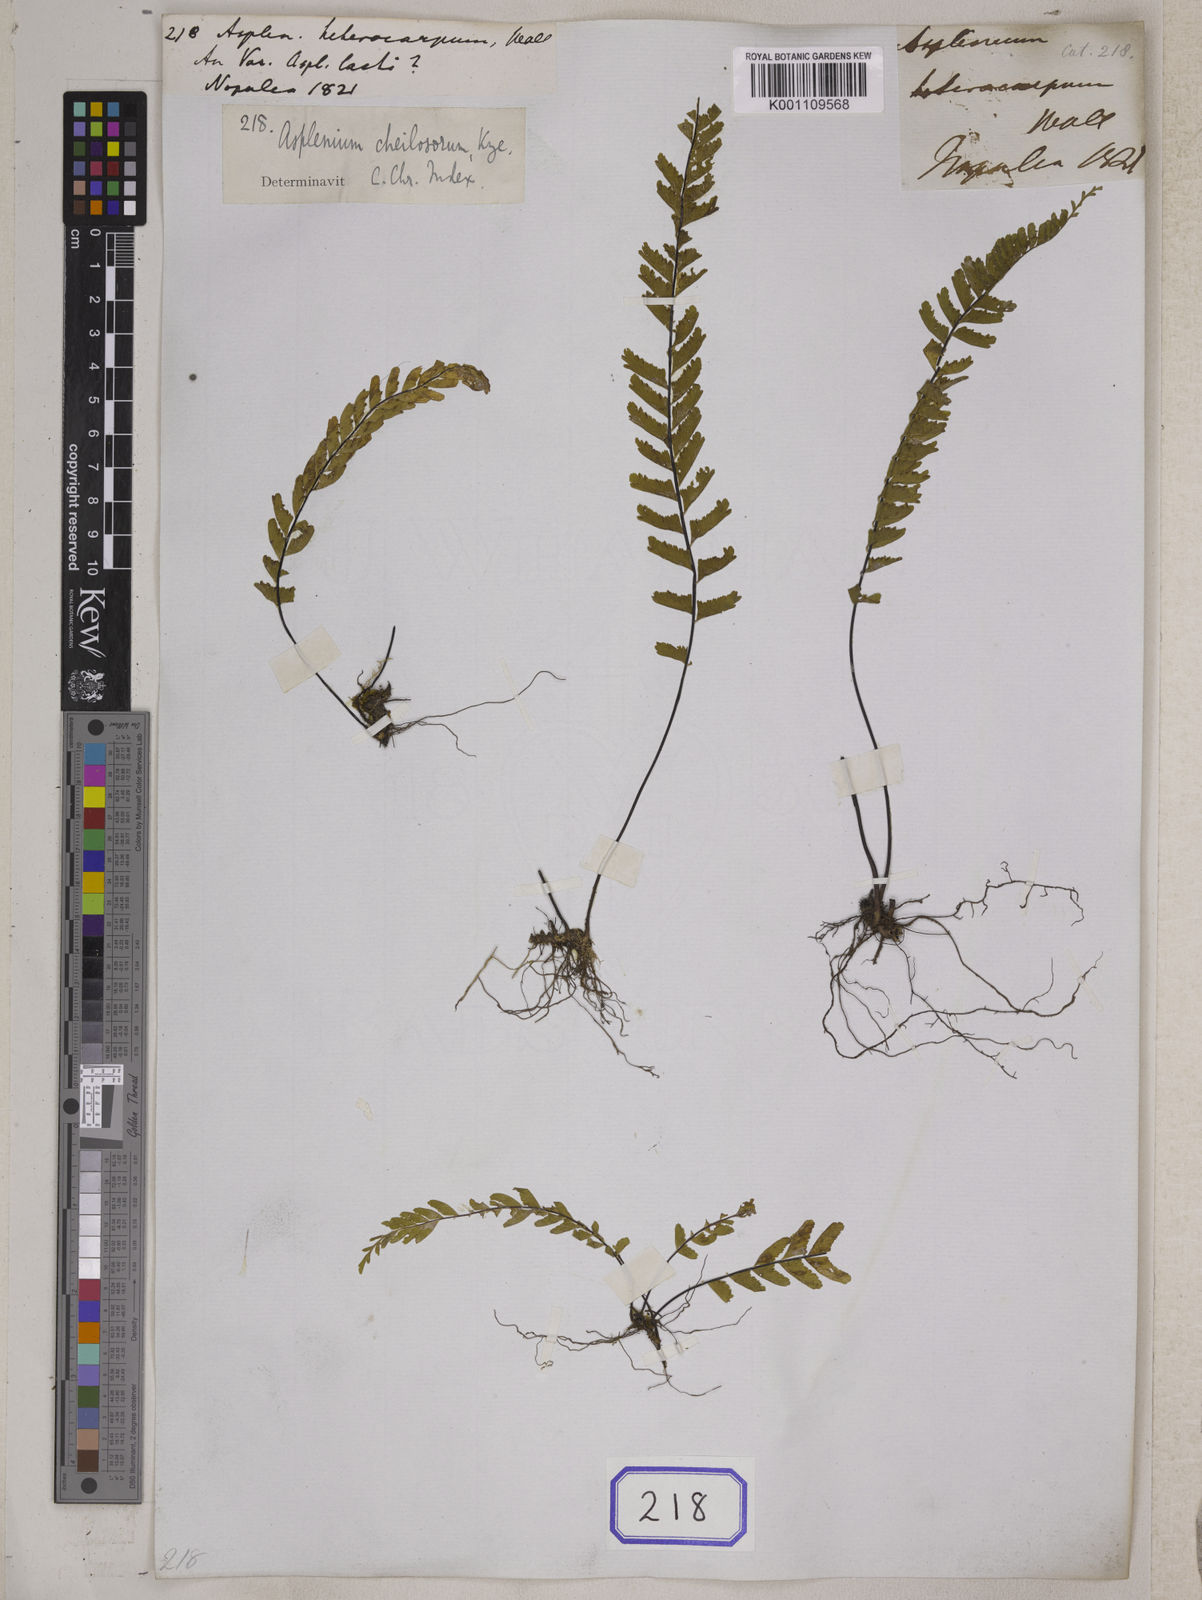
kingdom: Plantae
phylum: Tracheophyta
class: Polypodiopsida
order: Polypodiales
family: Aspleniaceae
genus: Hymenasplenium
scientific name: Hymenasplenium cheilosorum
